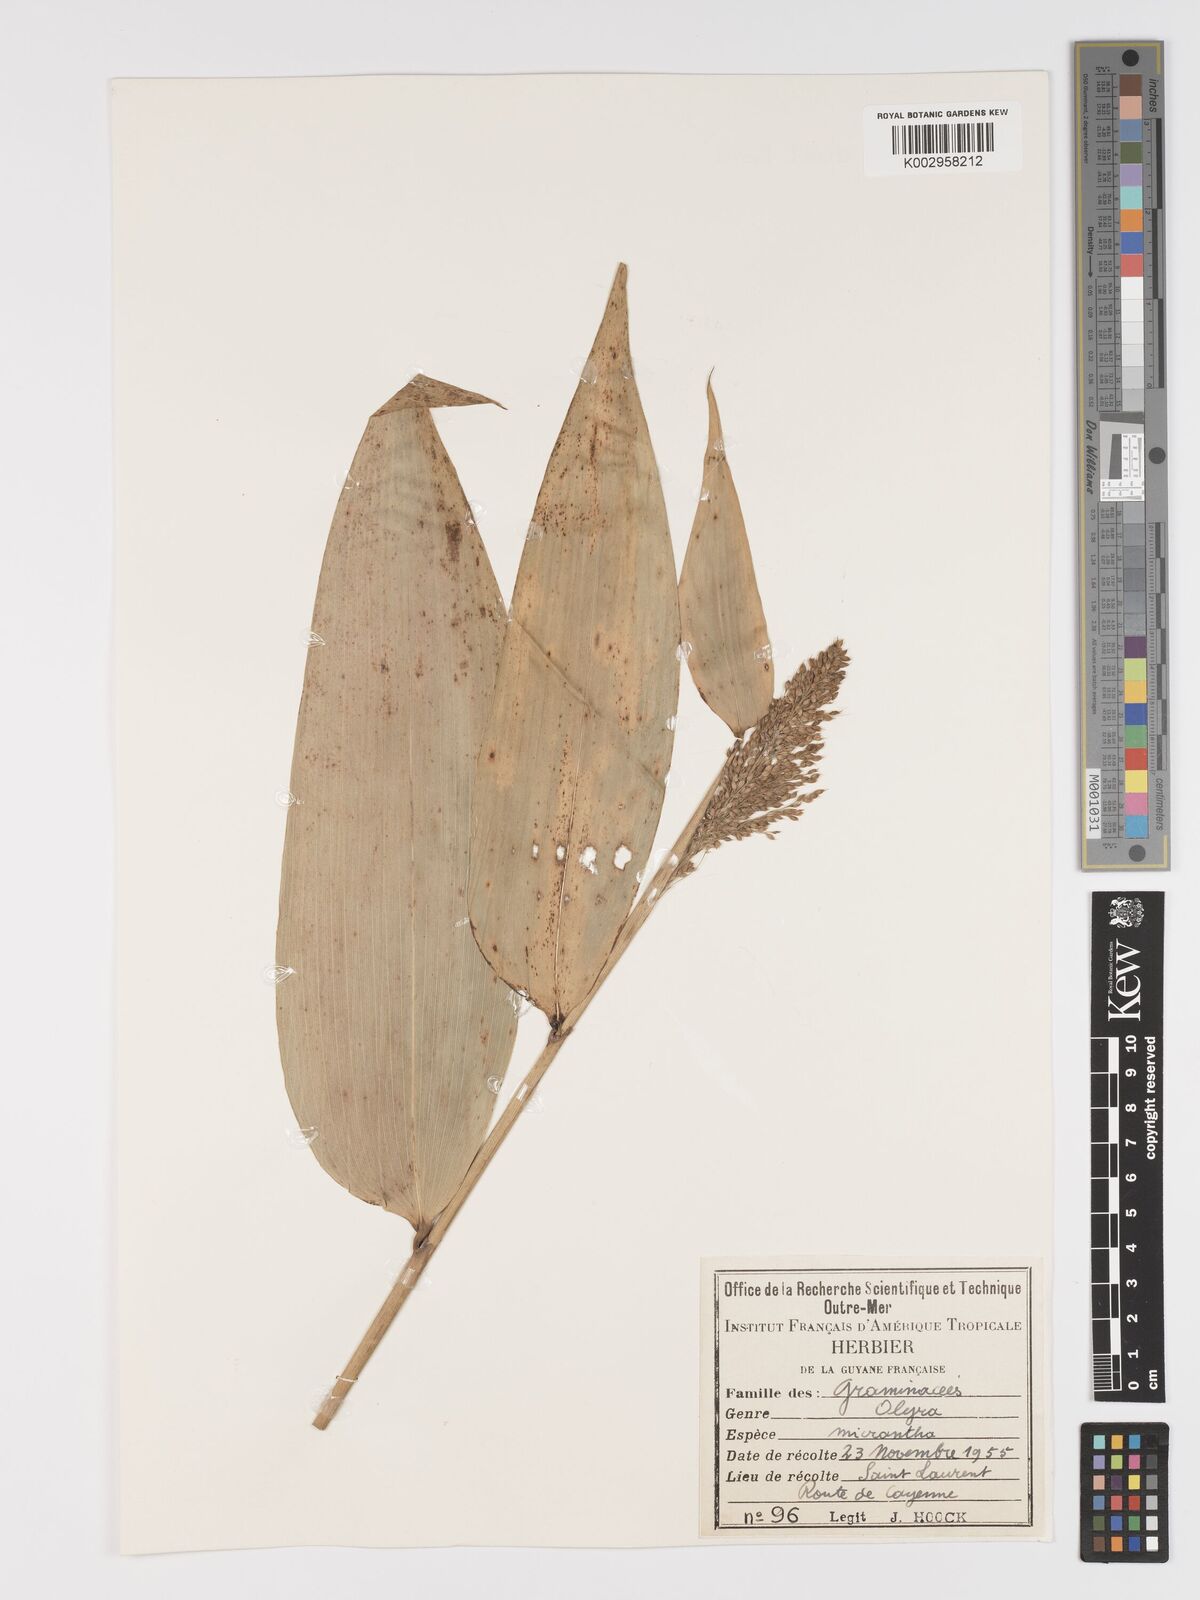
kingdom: Plantae
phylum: Tracheophyta
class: Liliopsida
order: Poales
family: Poaceae
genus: Taquara
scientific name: Taquara micrantha
